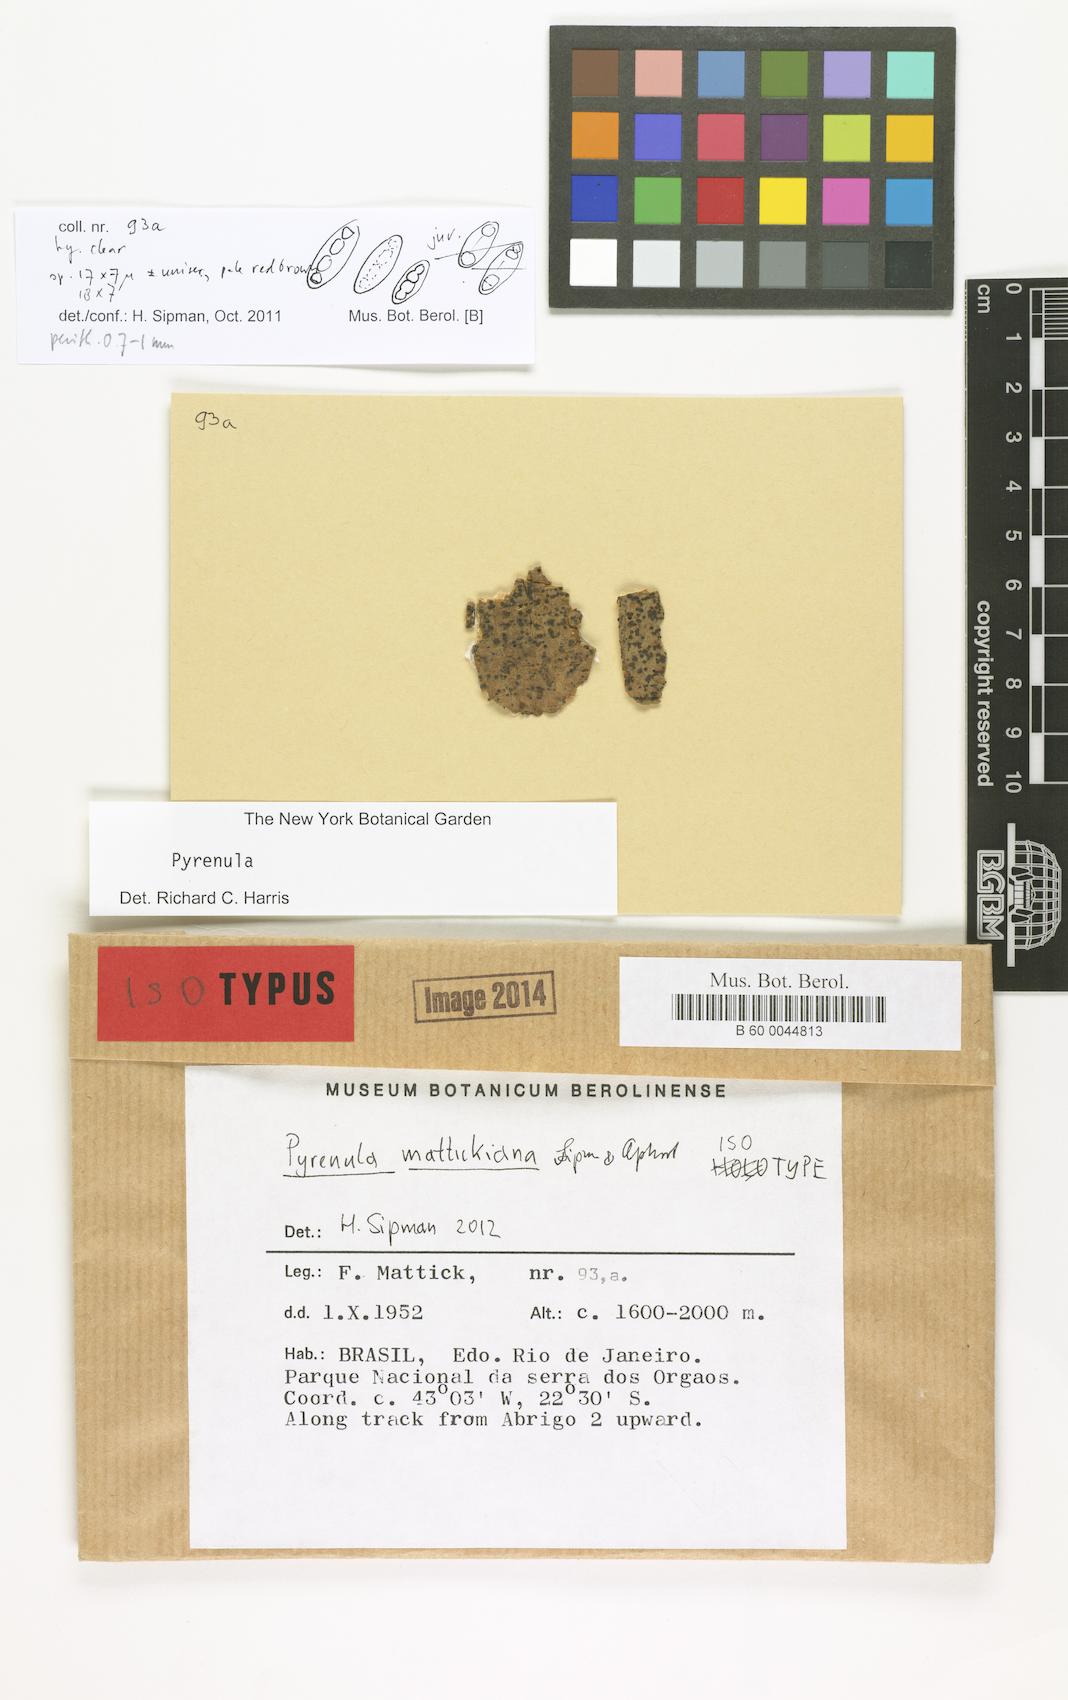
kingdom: Fungi
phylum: Ascomycota
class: Eurotiomycetes
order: Pyrenulales
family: Pyrenulaceae
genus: Pyrenula
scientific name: Pyrenula mattickiana
